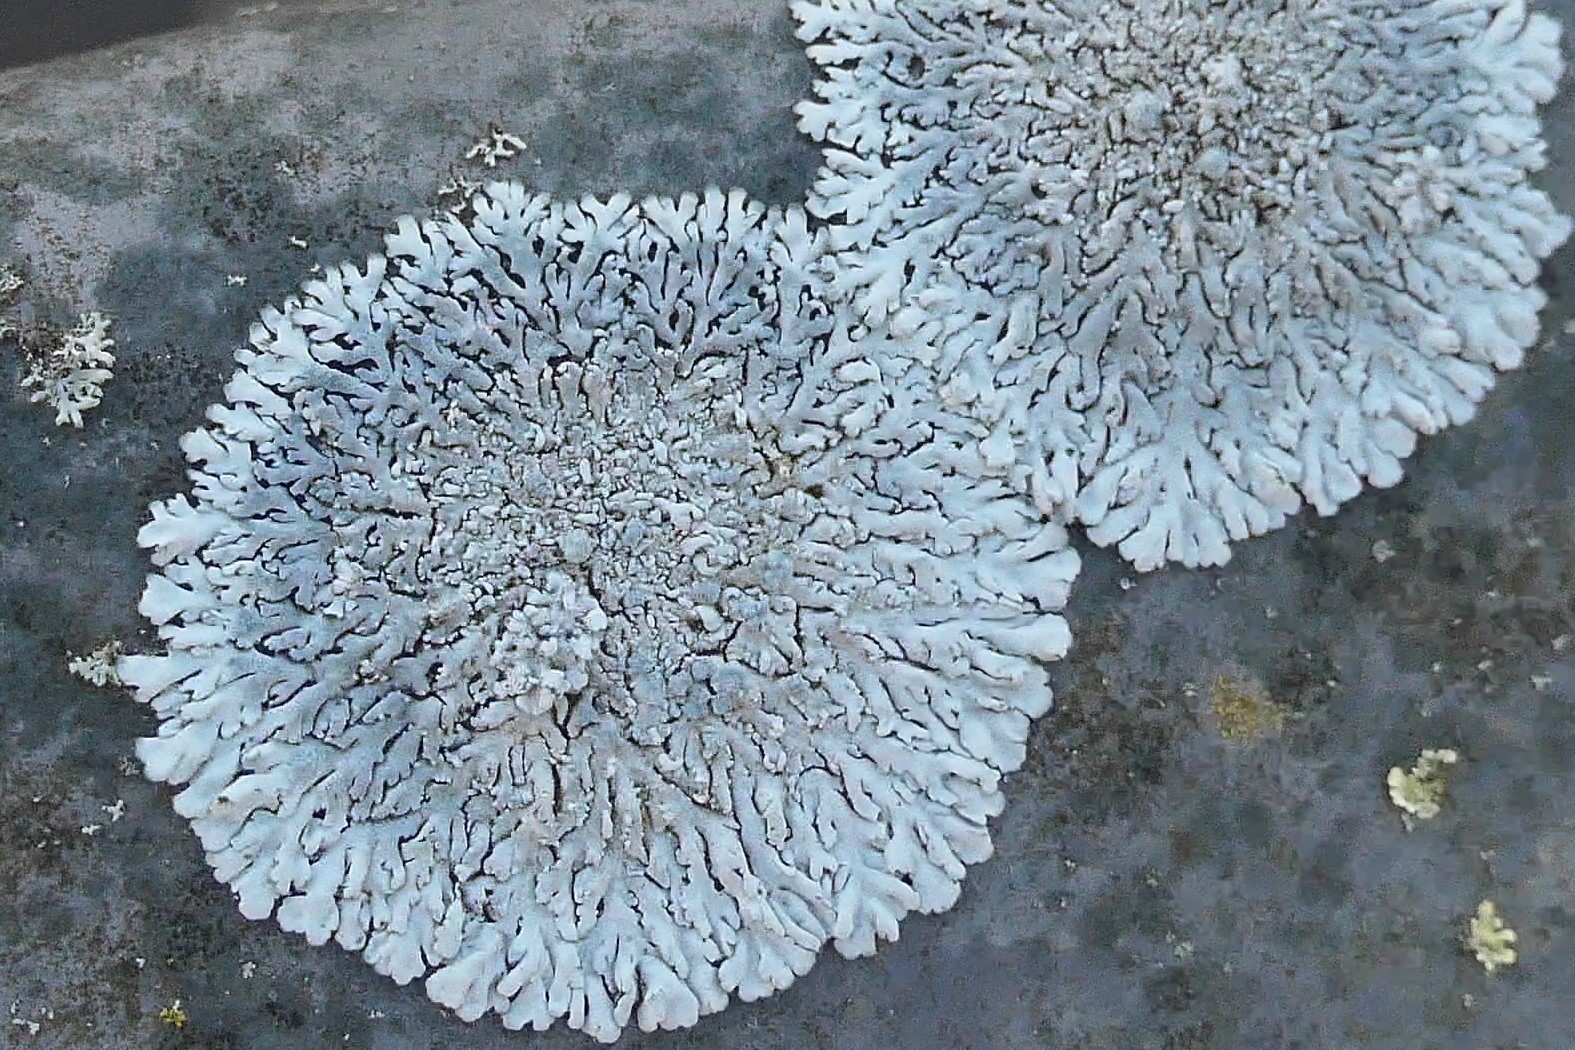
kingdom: Fungi
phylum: Ascomycota
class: Lecanoromycetes
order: Caliciales
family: Physciaceae
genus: Physcia
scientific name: Physcia caesia
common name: blågrå rosetlav
